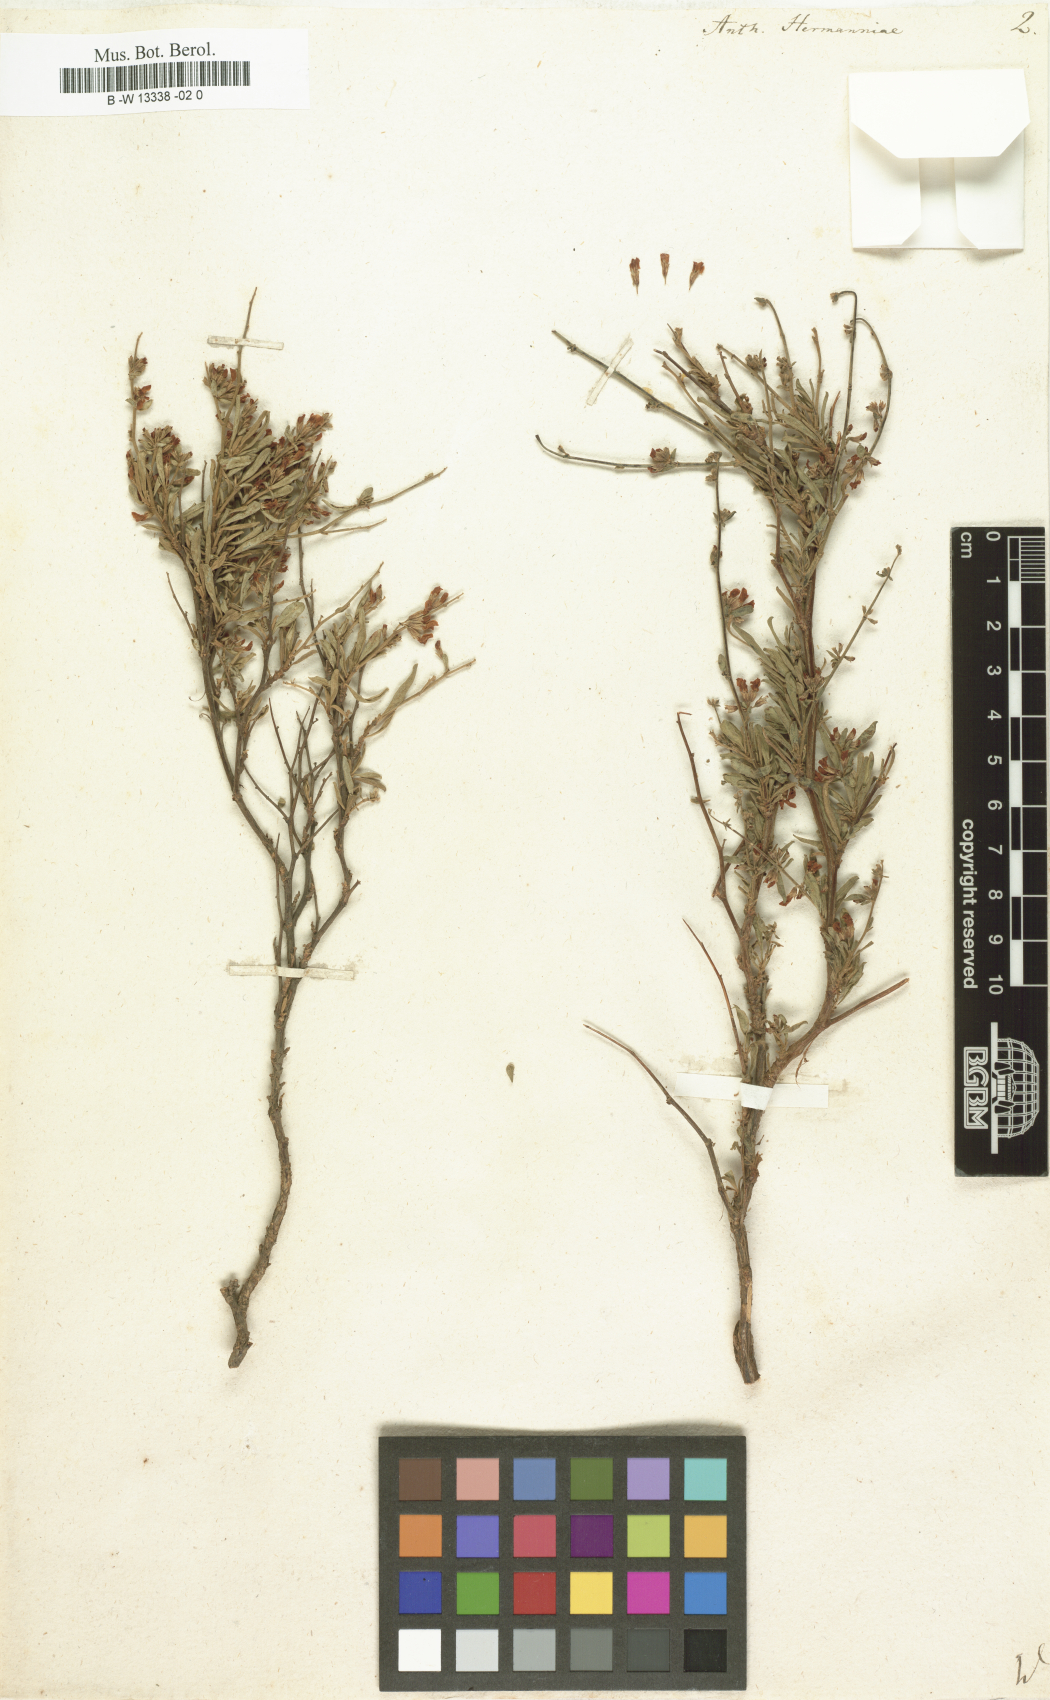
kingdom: Plantae
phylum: Tracheophyta
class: Magnoliopsida
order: Fabales
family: Fabaceae
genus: Anthyllis
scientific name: Anthyllis hermanniae
